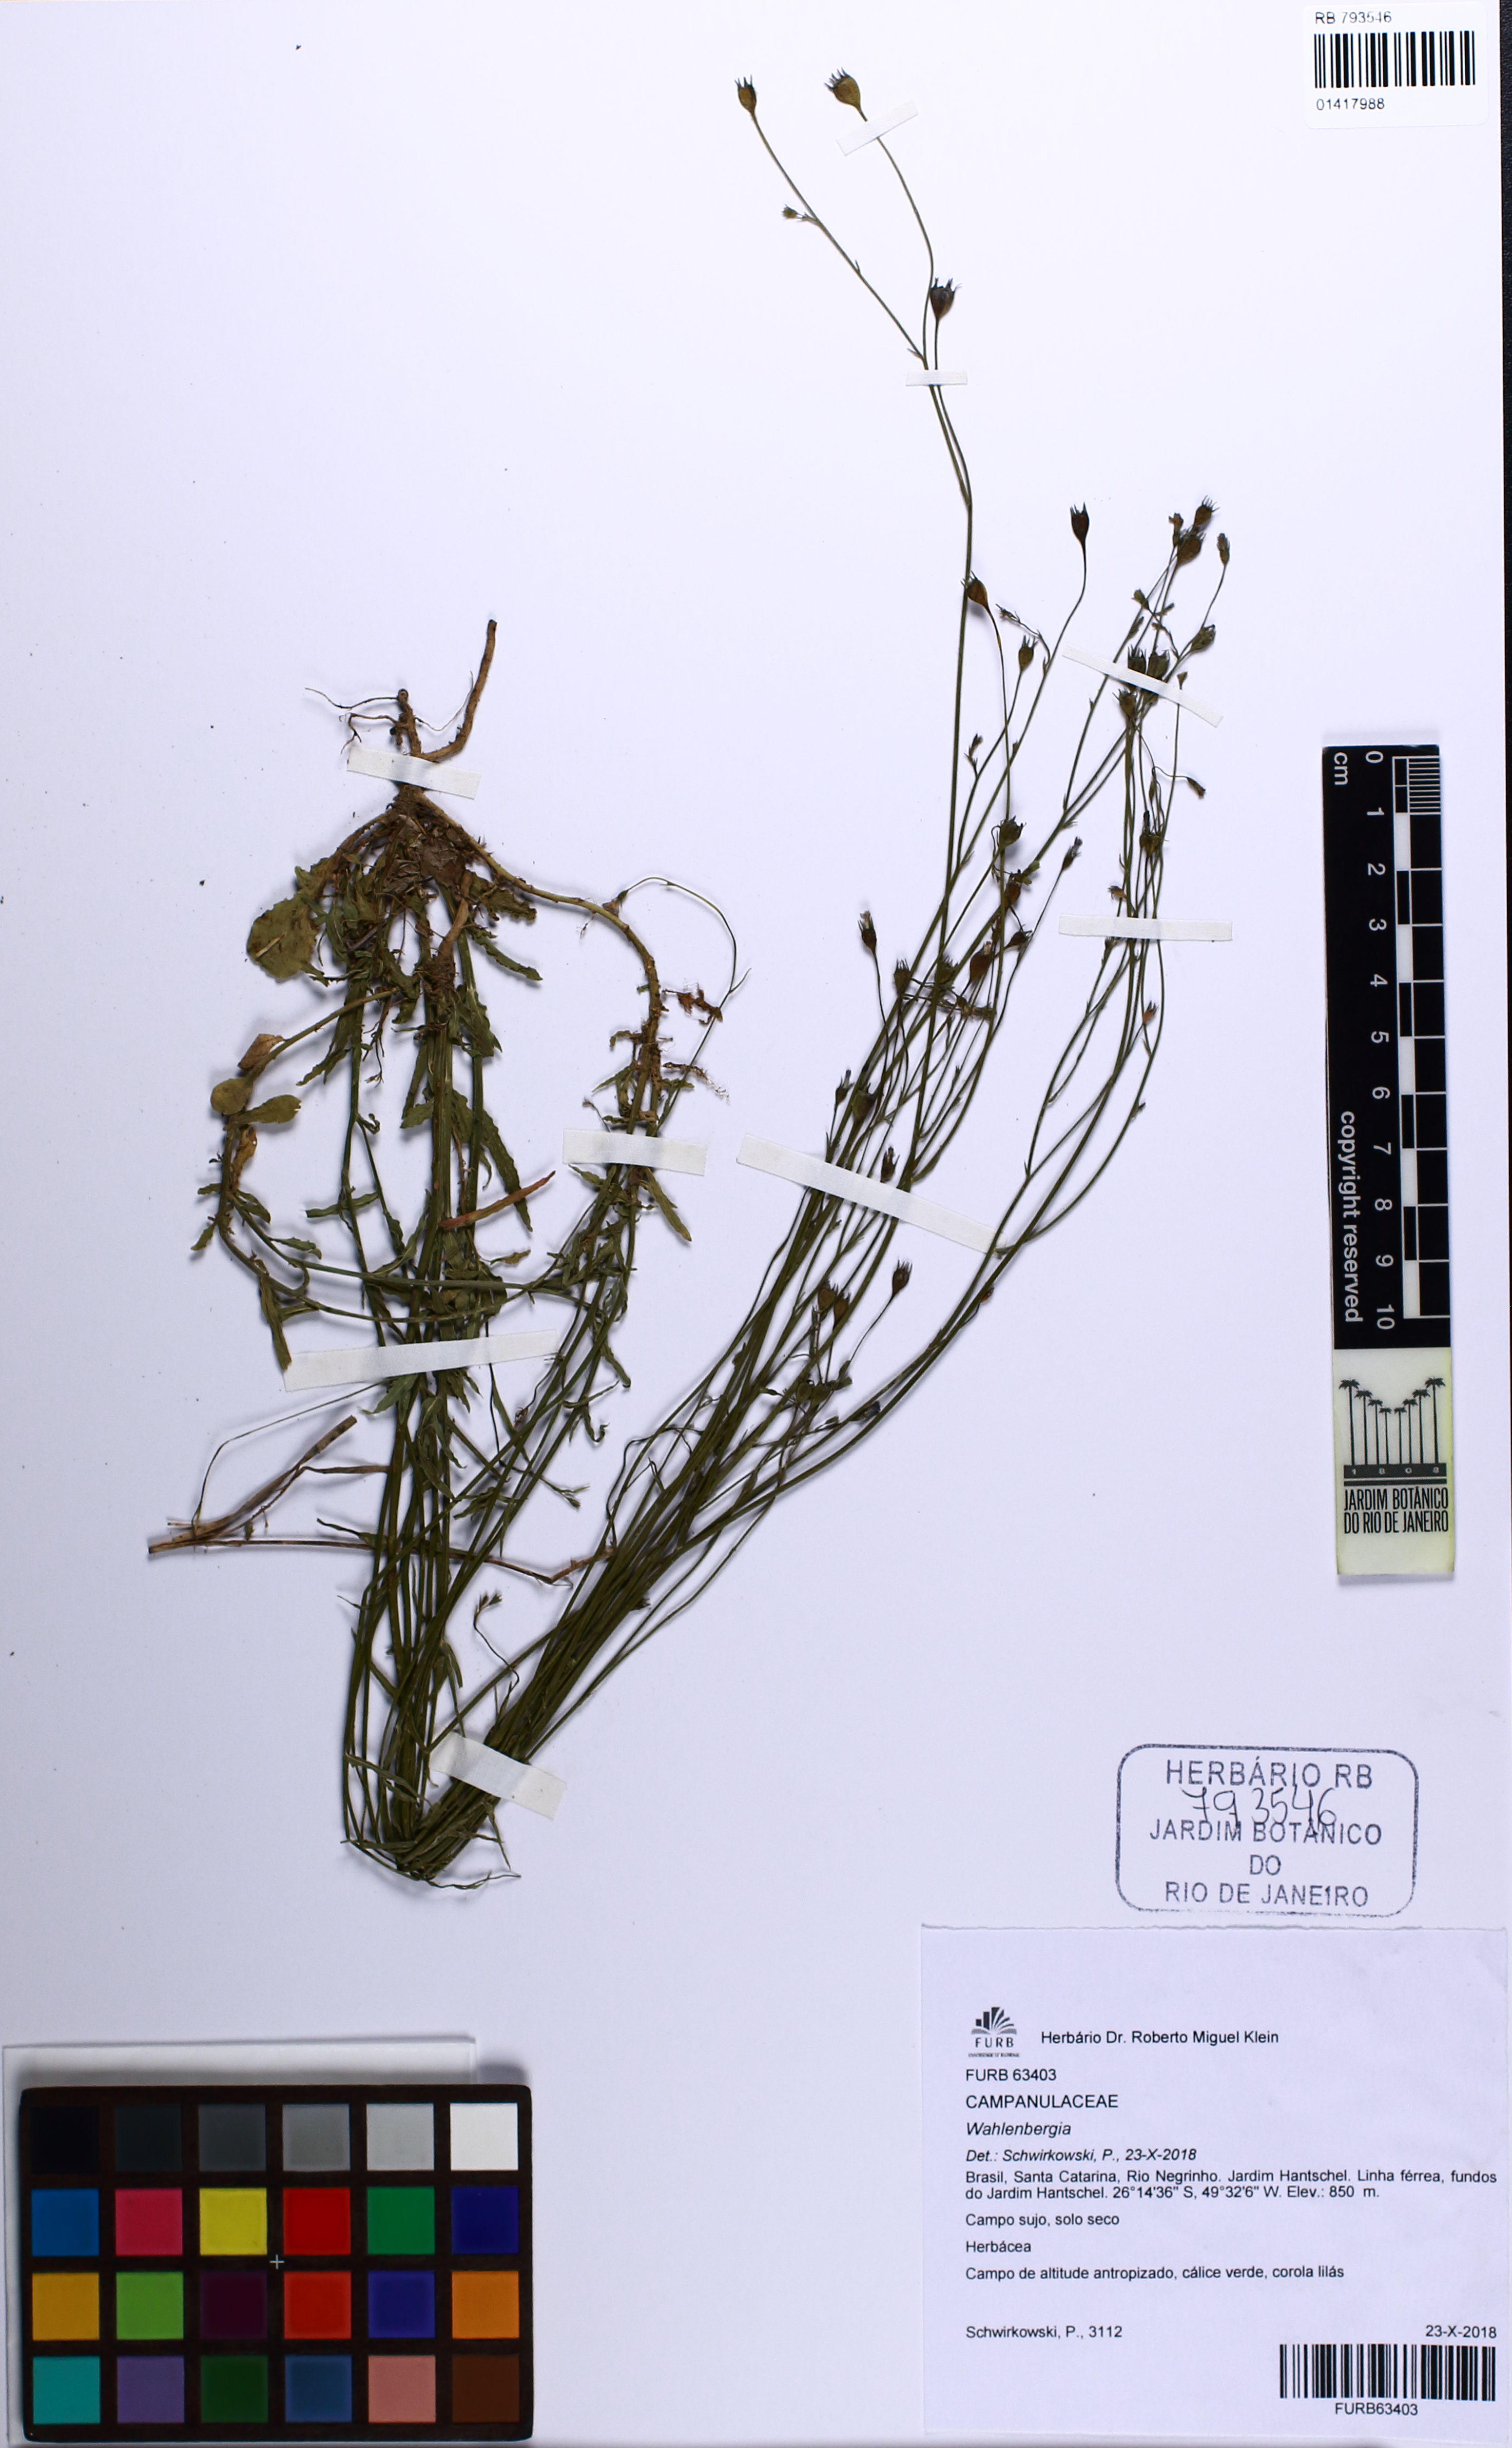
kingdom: Plantae
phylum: Tracheophyta
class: Magnoliopsida
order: Asterales
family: Campanulaceae
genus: Wahlenbergia
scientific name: Wahlenbergia marginata
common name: Southern rockbell
